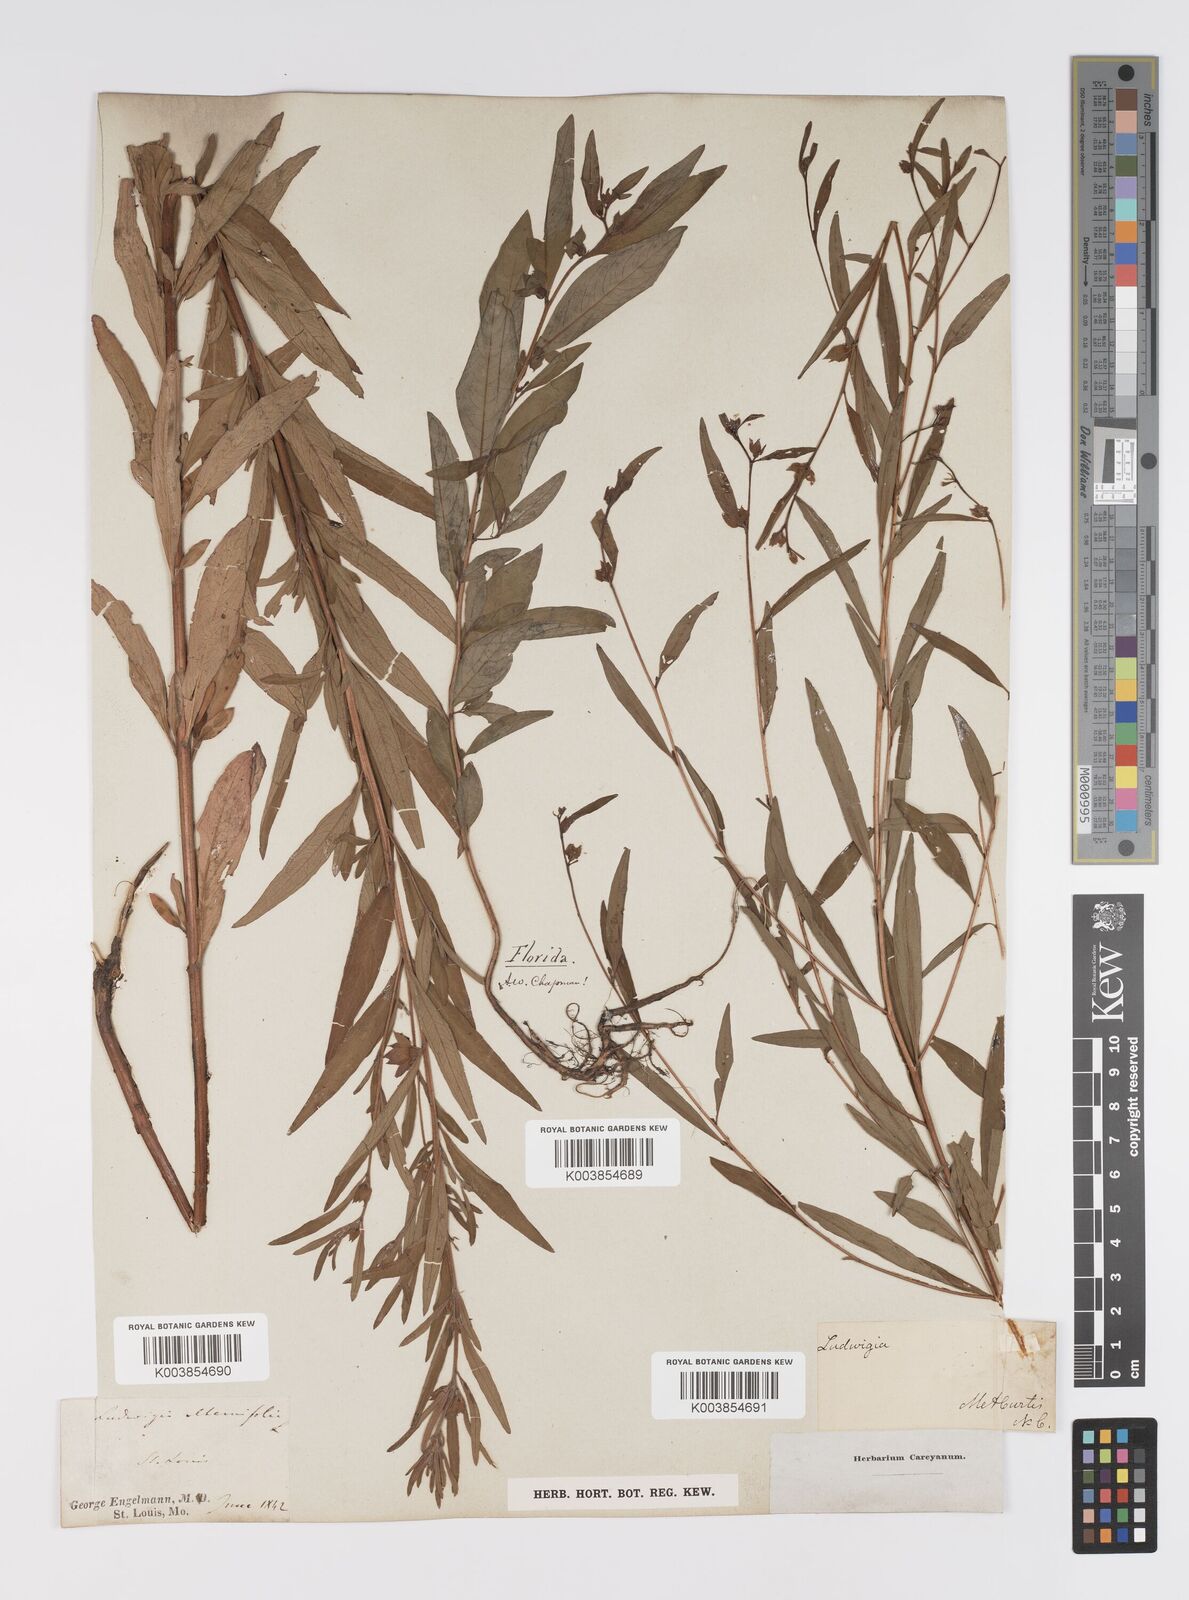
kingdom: Plantae
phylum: Tracheophyta
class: Magnoliopsida
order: Myrtales
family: Onagraceae
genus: Ludwigia
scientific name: Ludwigia alternifolia
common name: Rattlebox
